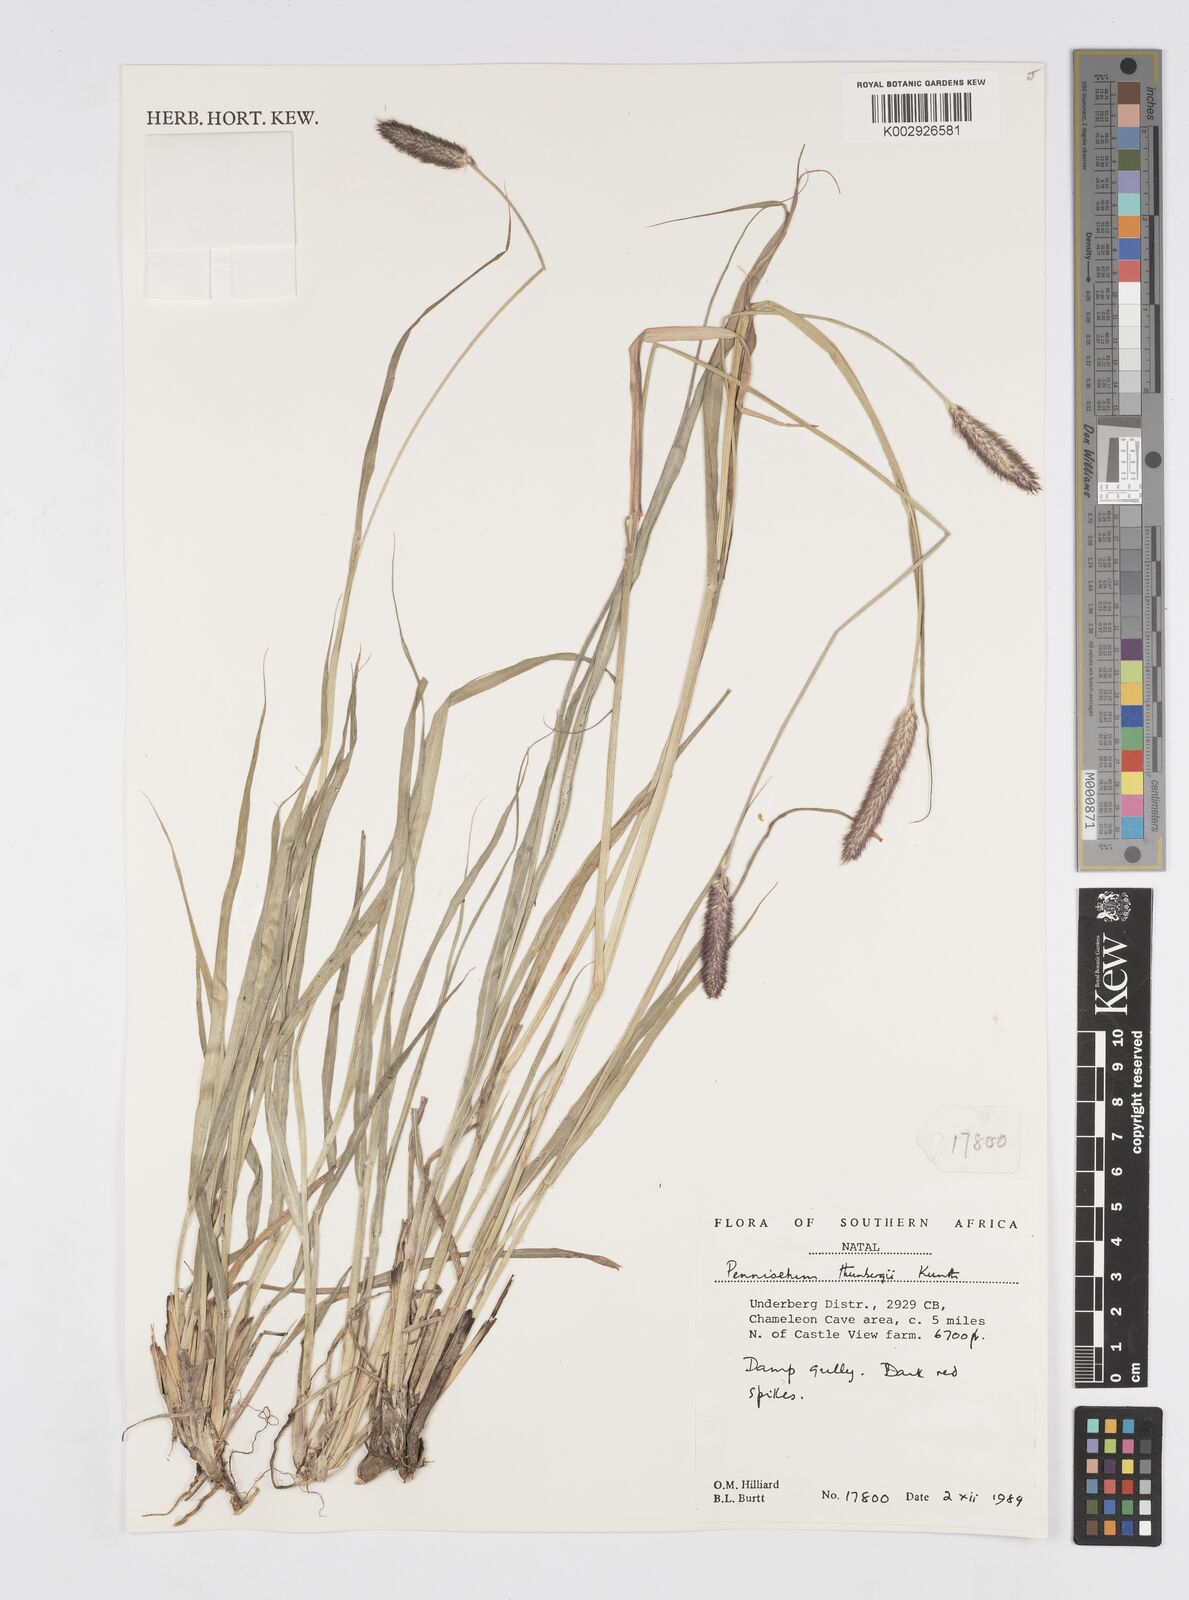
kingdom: Plantae
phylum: Tracheophyta
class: Liliopsida
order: Poales
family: Poaceae
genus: Cenchrus
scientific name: Cenchrus geniculatus
